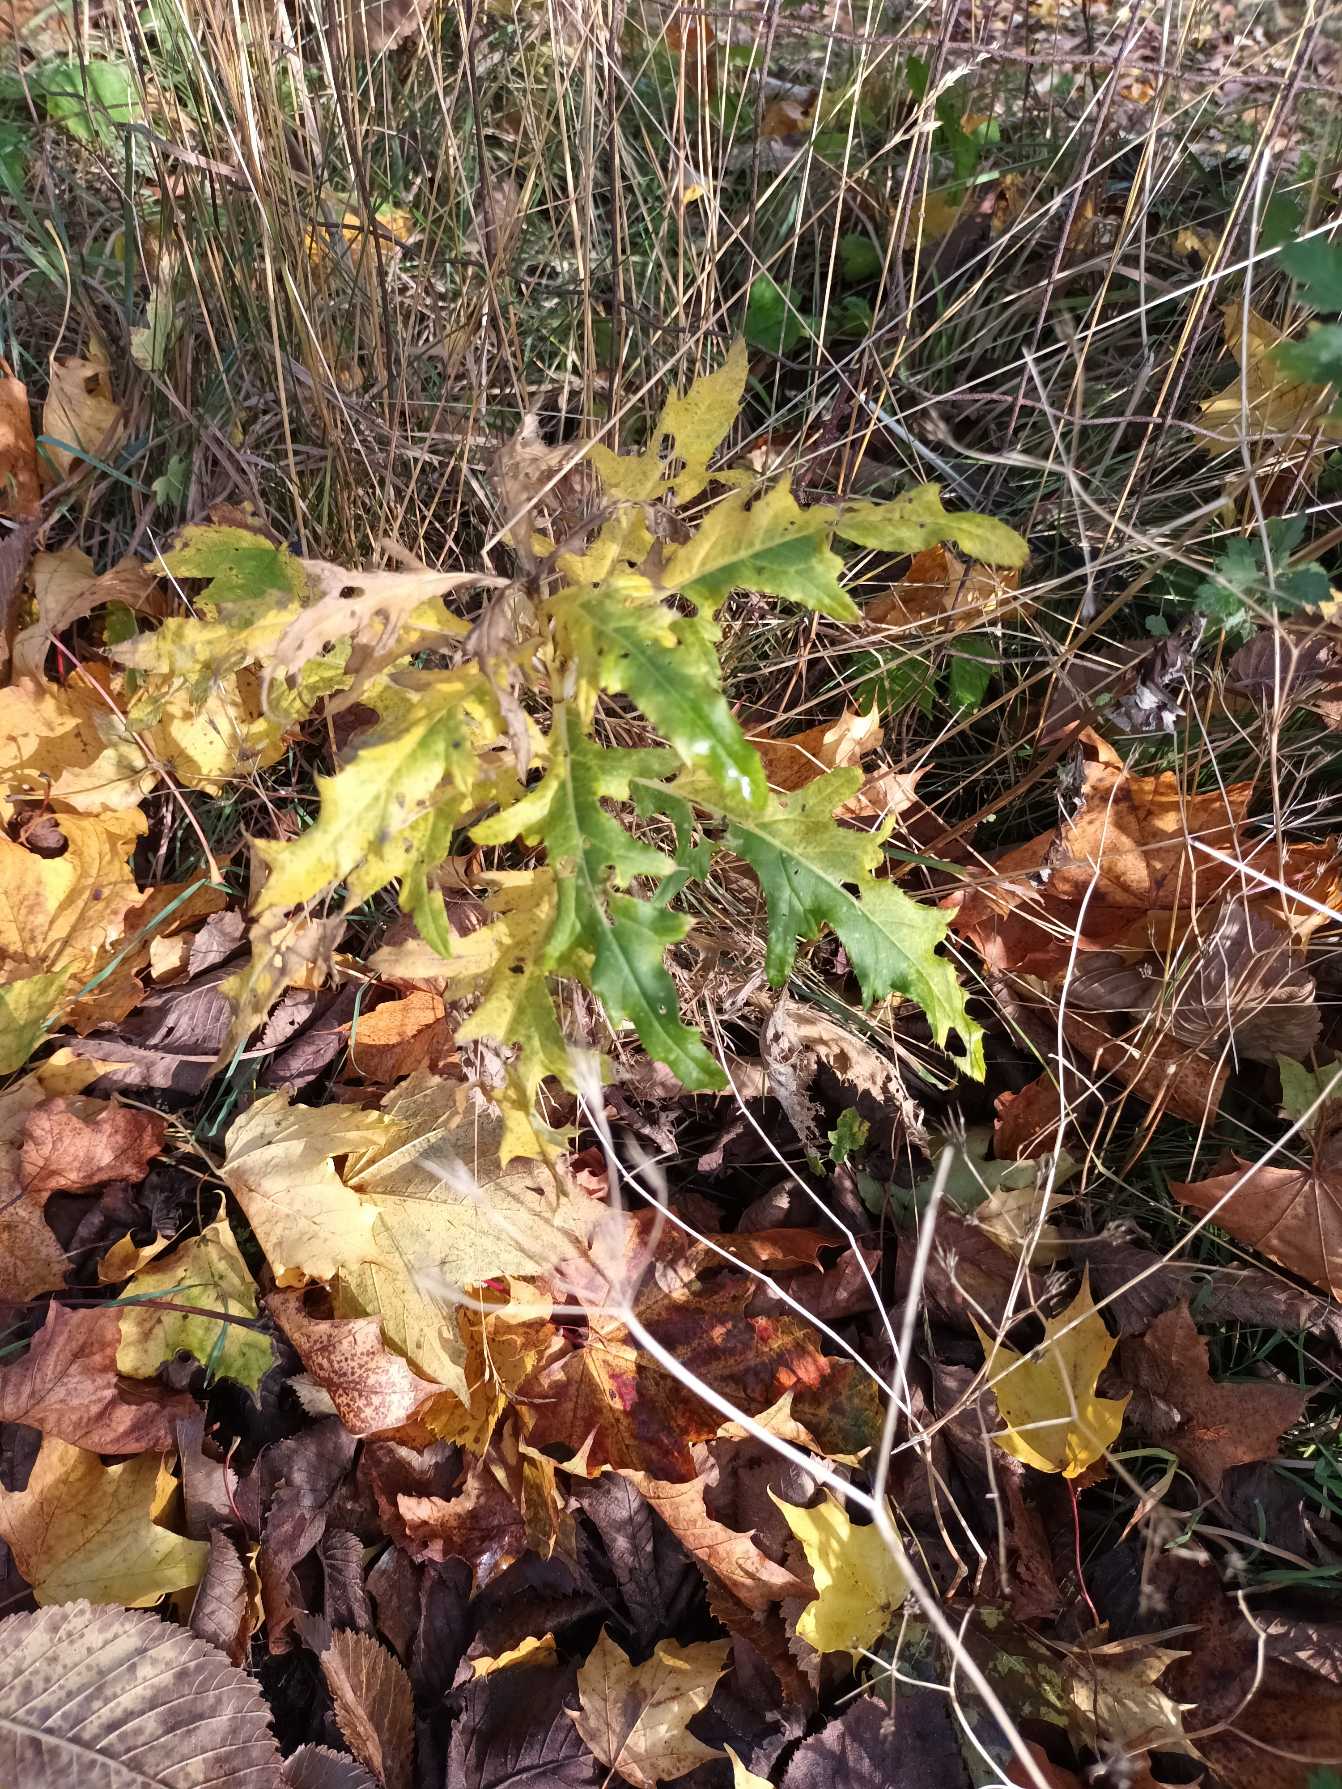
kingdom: Plantae
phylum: Tracheophyta
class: Magnoliopsida
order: Asterales
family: Asteraceae
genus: Cirsium
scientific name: Cirsium arvense
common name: Ager-tidsel
